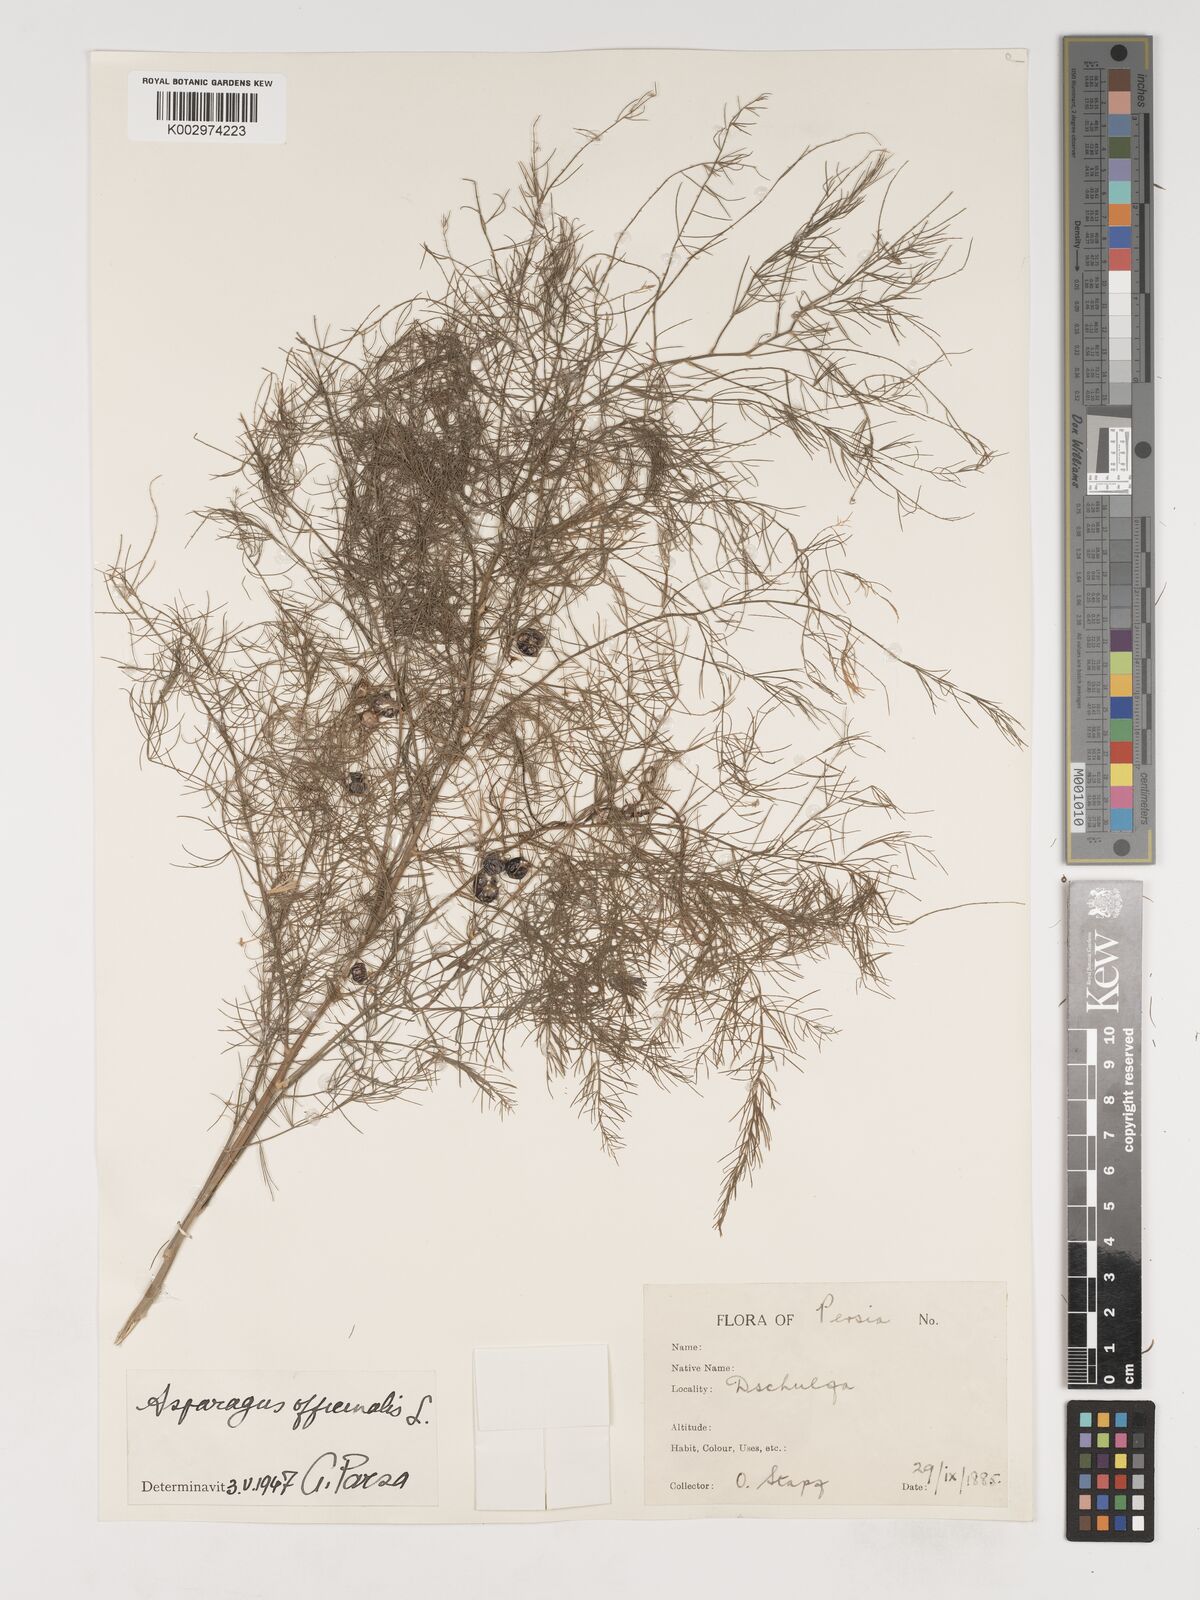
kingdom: Plantae
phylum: Tracheophyta
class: Liliopsida
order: Asparagales
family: Asparagaceae
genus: Asparagus
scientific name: Asparagus officinalis
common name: Garden asparagus
